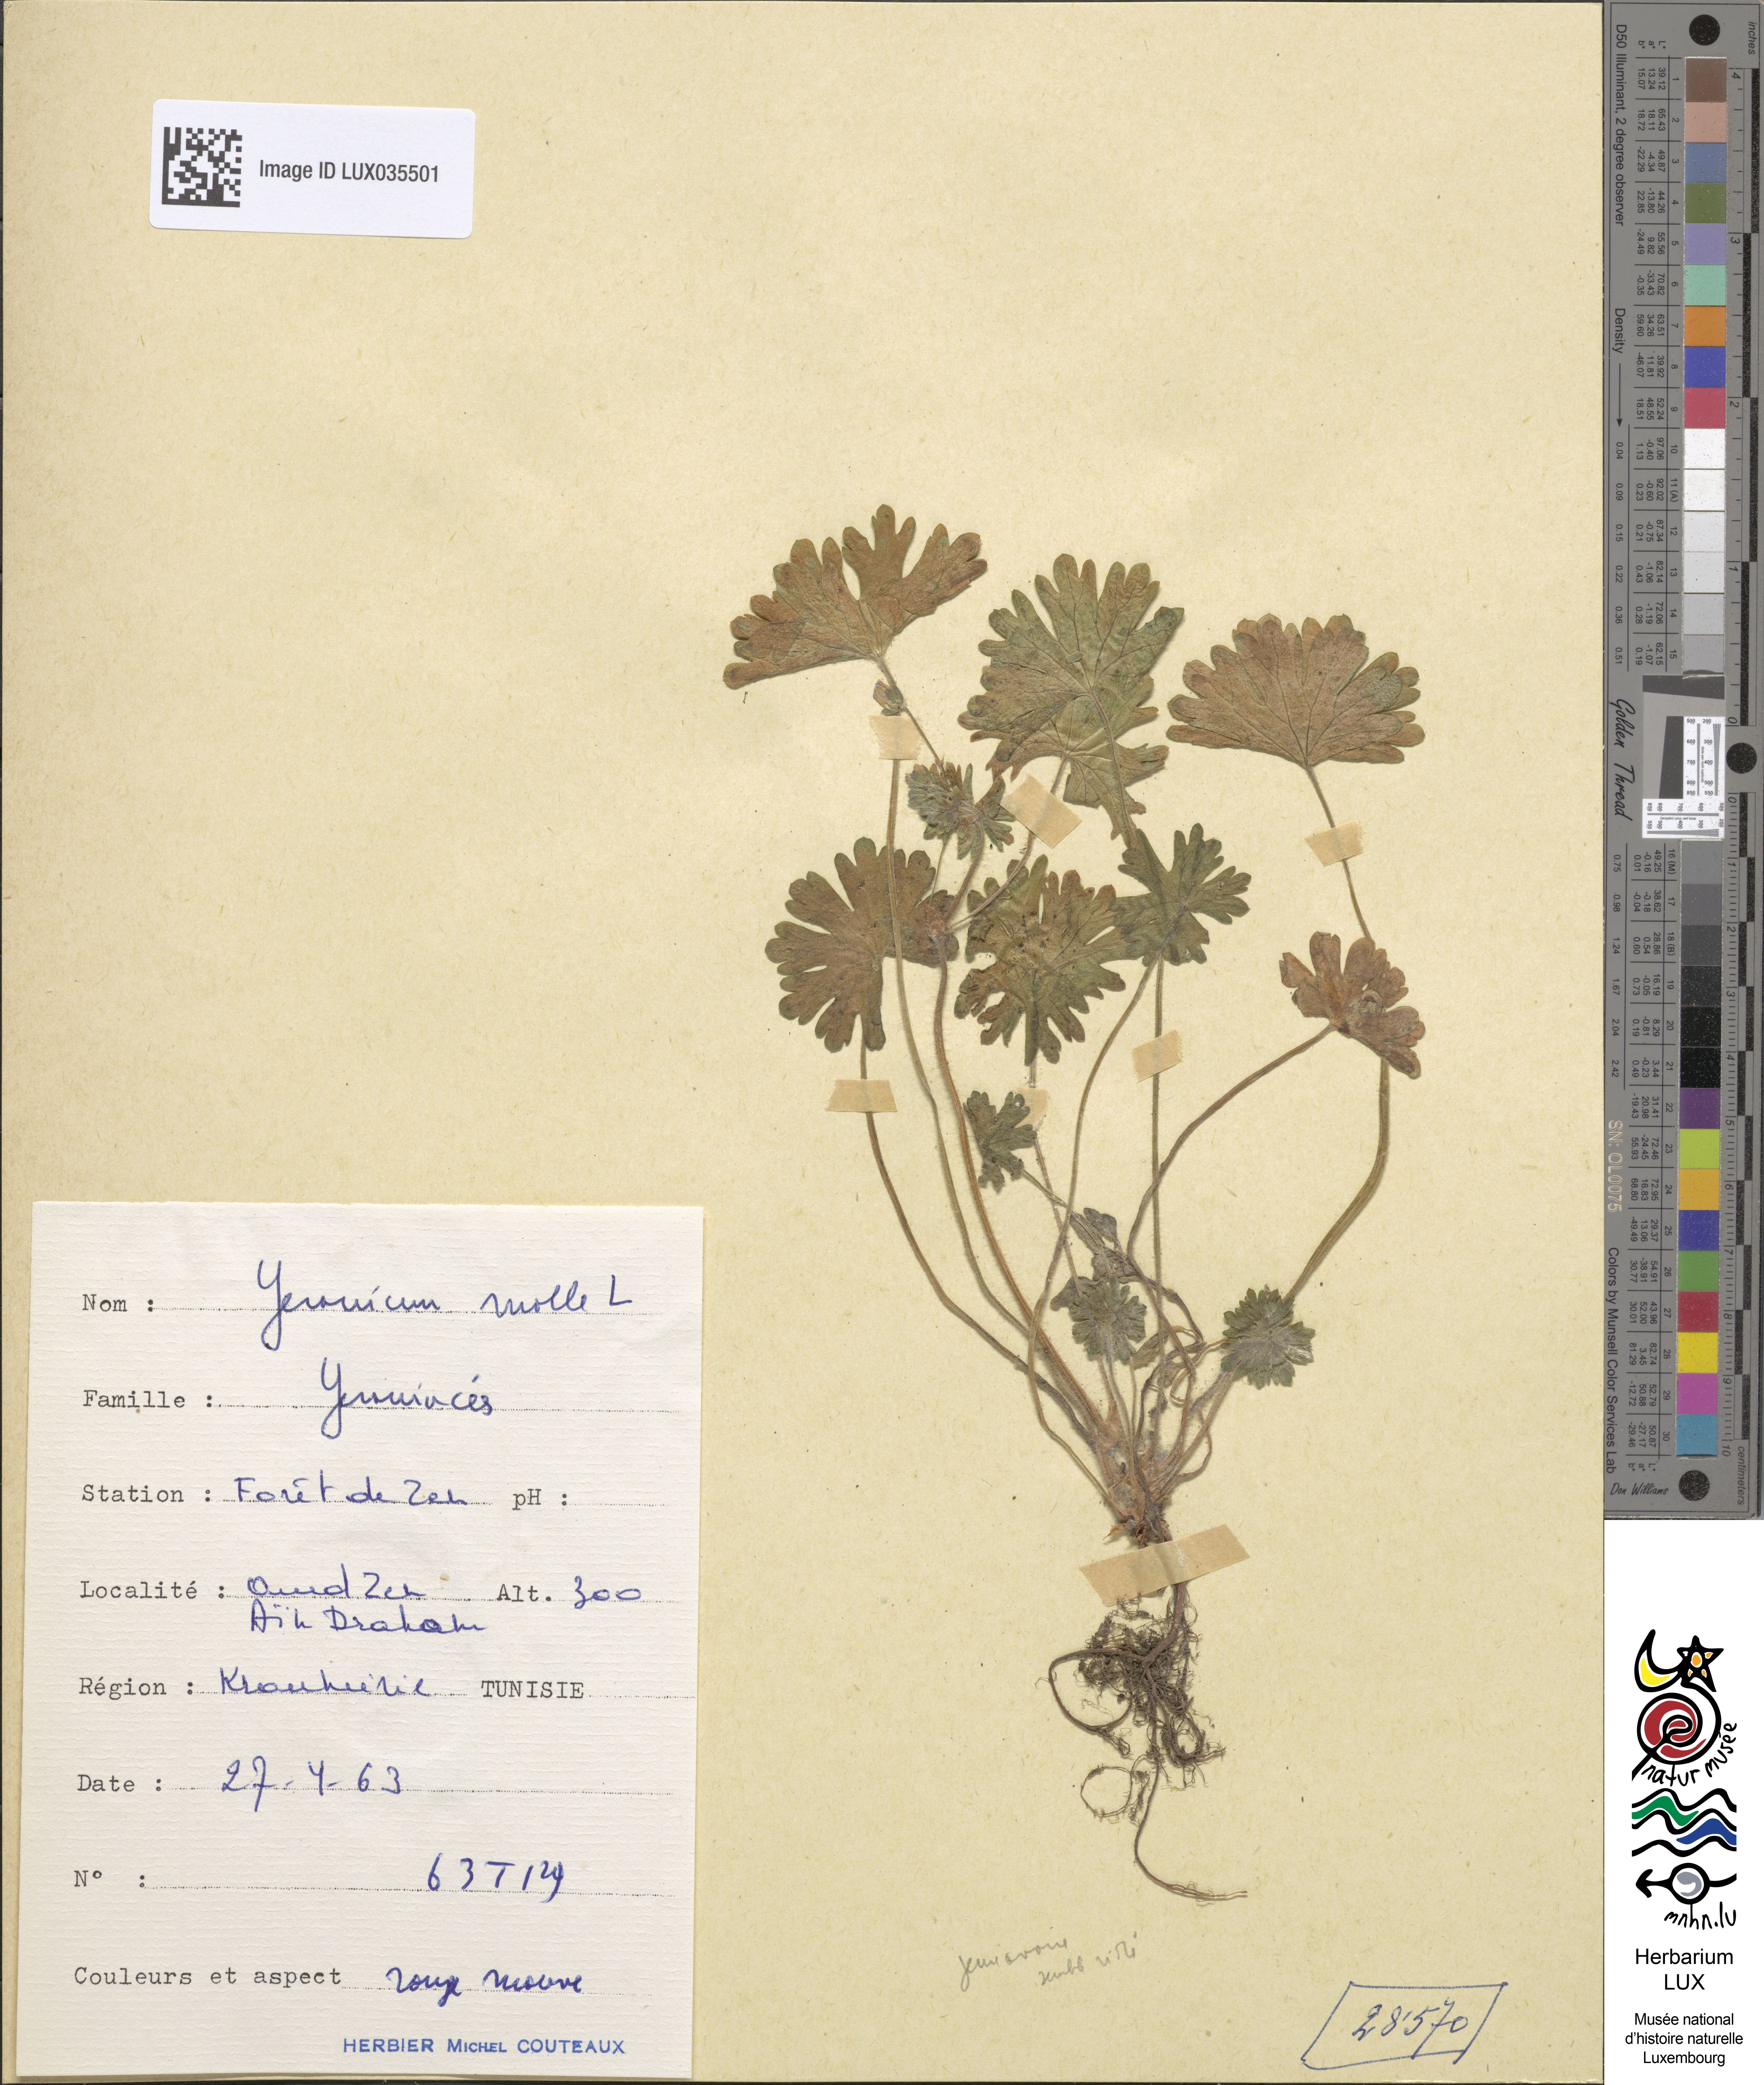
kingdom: Plantae
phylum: Tracheophyta
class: Magnoliopsida
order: Geraniales
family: Geraniaceae
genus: Geranium
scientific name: Geranium molle
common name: Dove's-foot crane's-bill
